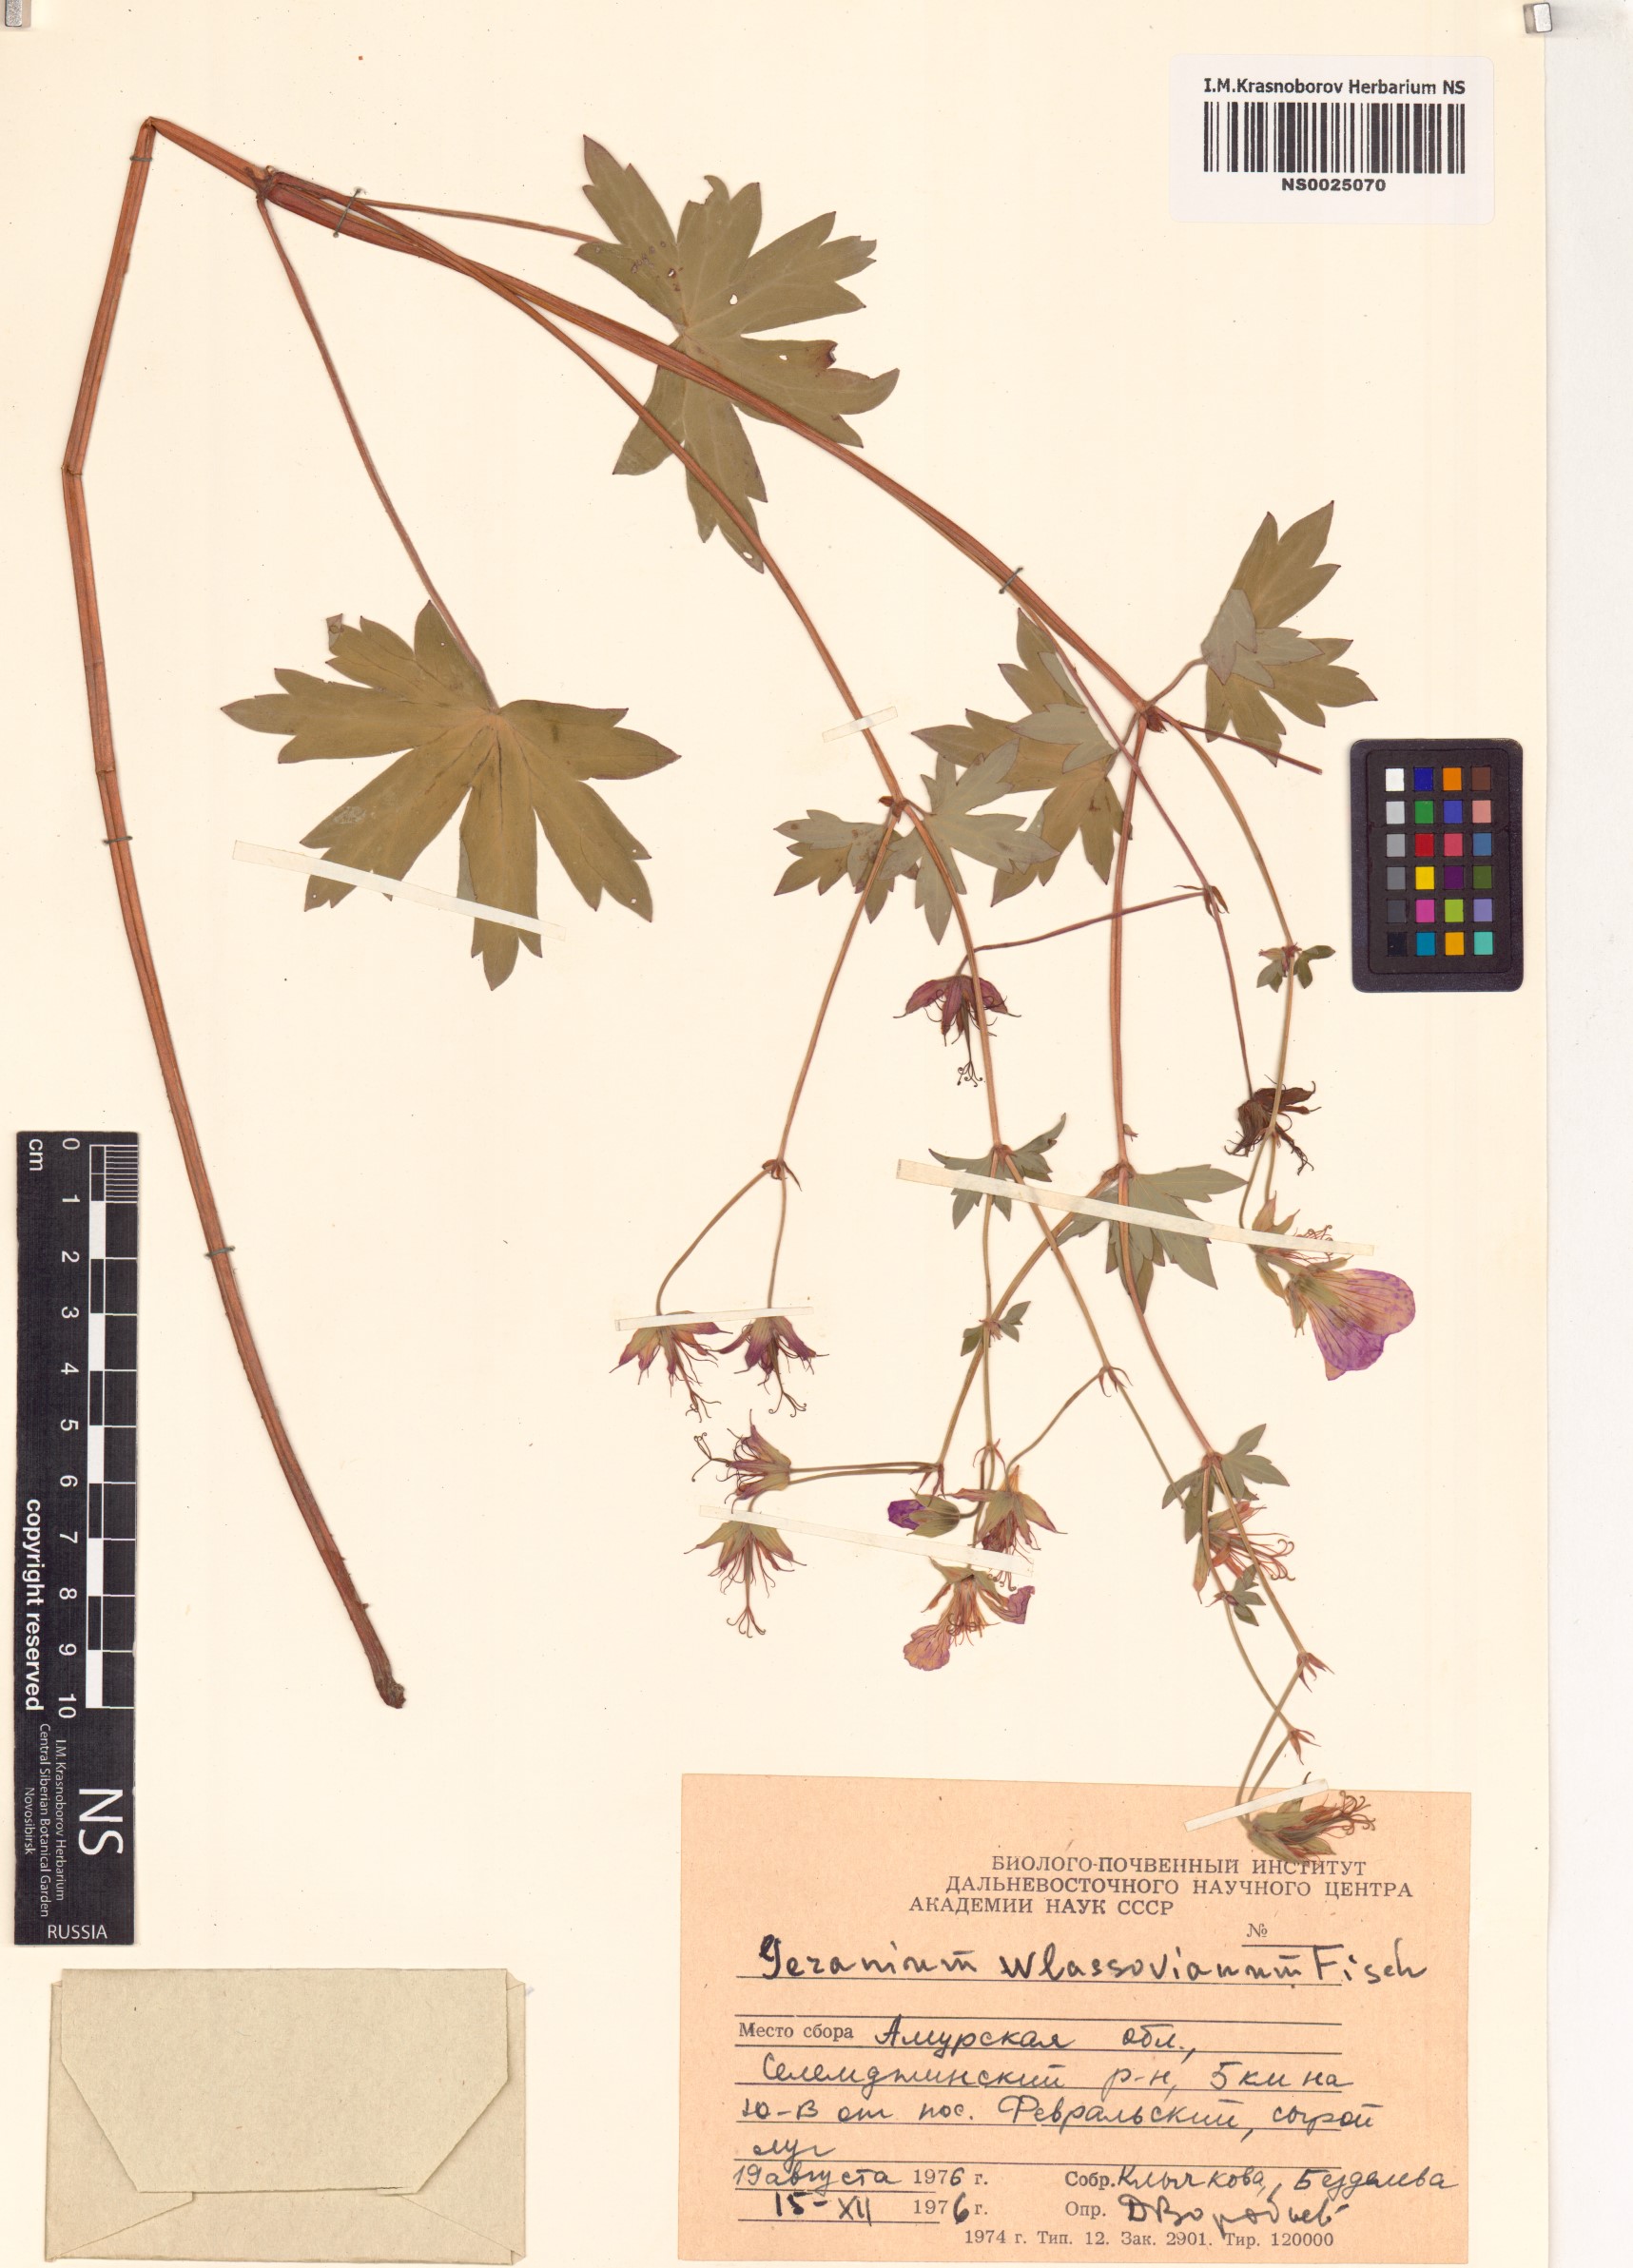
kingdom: Plantae
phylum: Tracheophyta
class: Magnoliopsida
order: Geraniales
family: Geraniaceae
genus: Geranium
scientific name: Geranium wlassovianum
